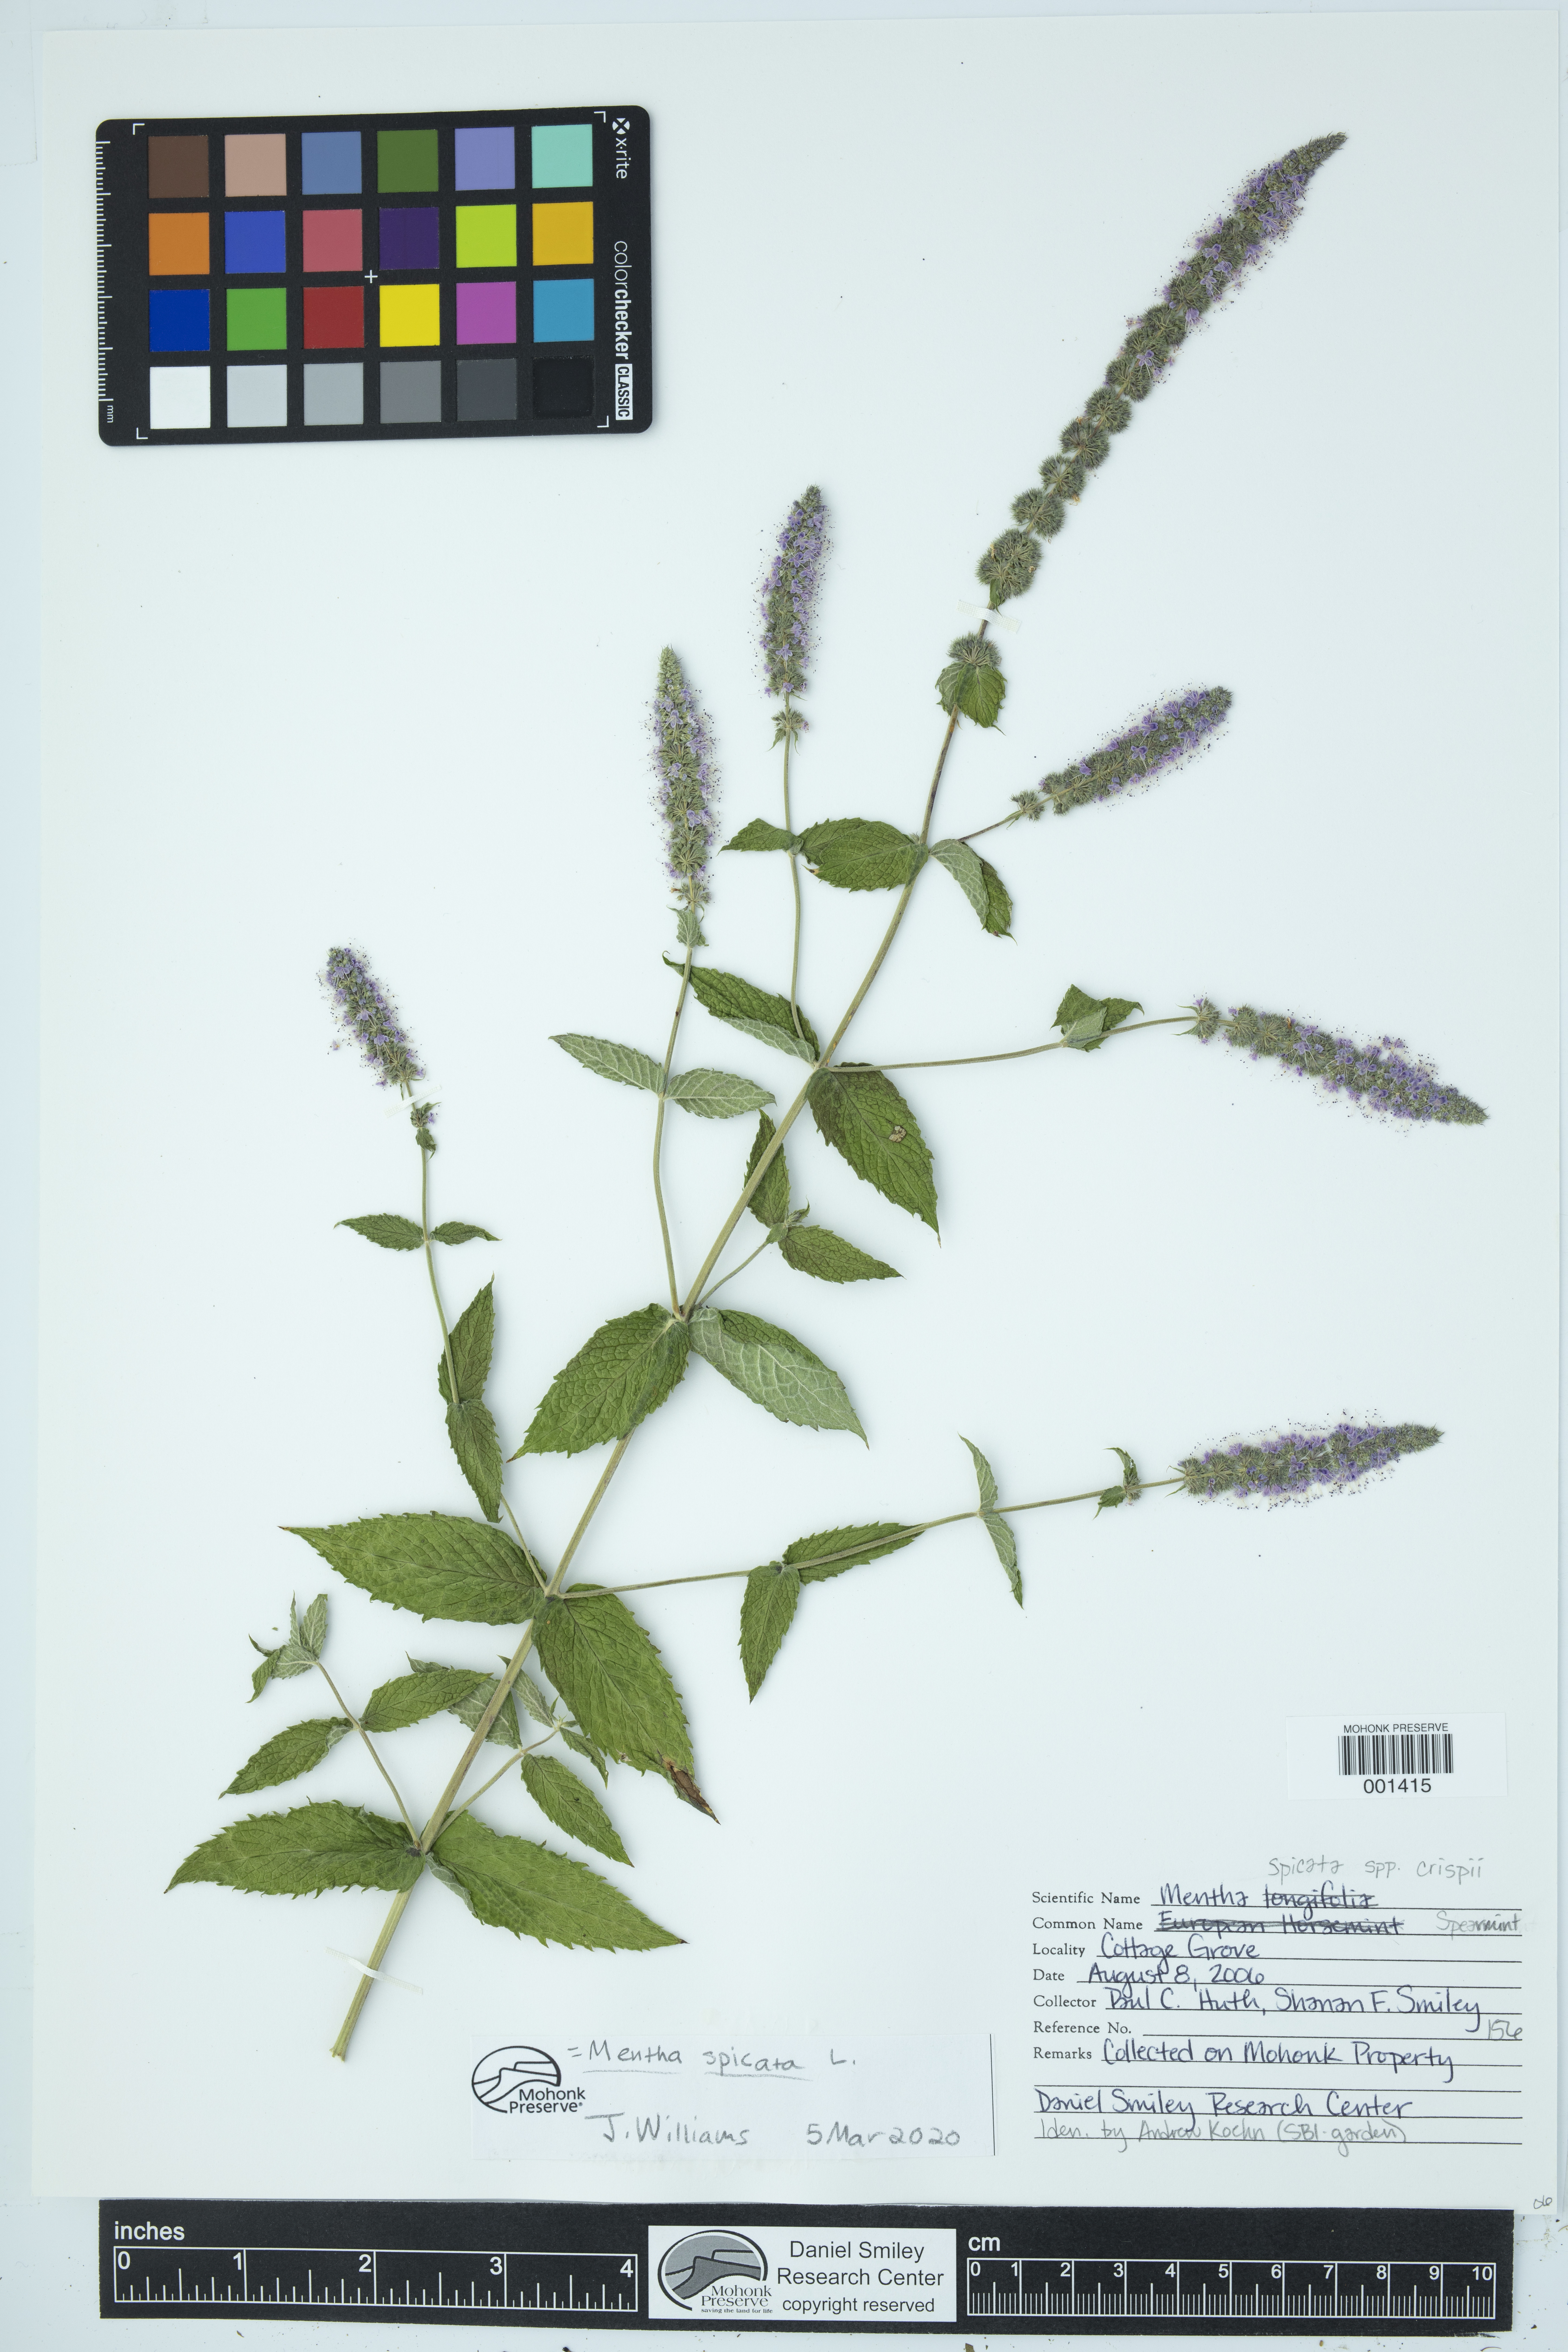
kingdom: Plantae
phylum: Tracheophyta
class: Magnoliopsida
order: Lamiales
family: Lamiaceae
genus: Mentha
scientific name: Mentha spicata
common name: Spearmint
